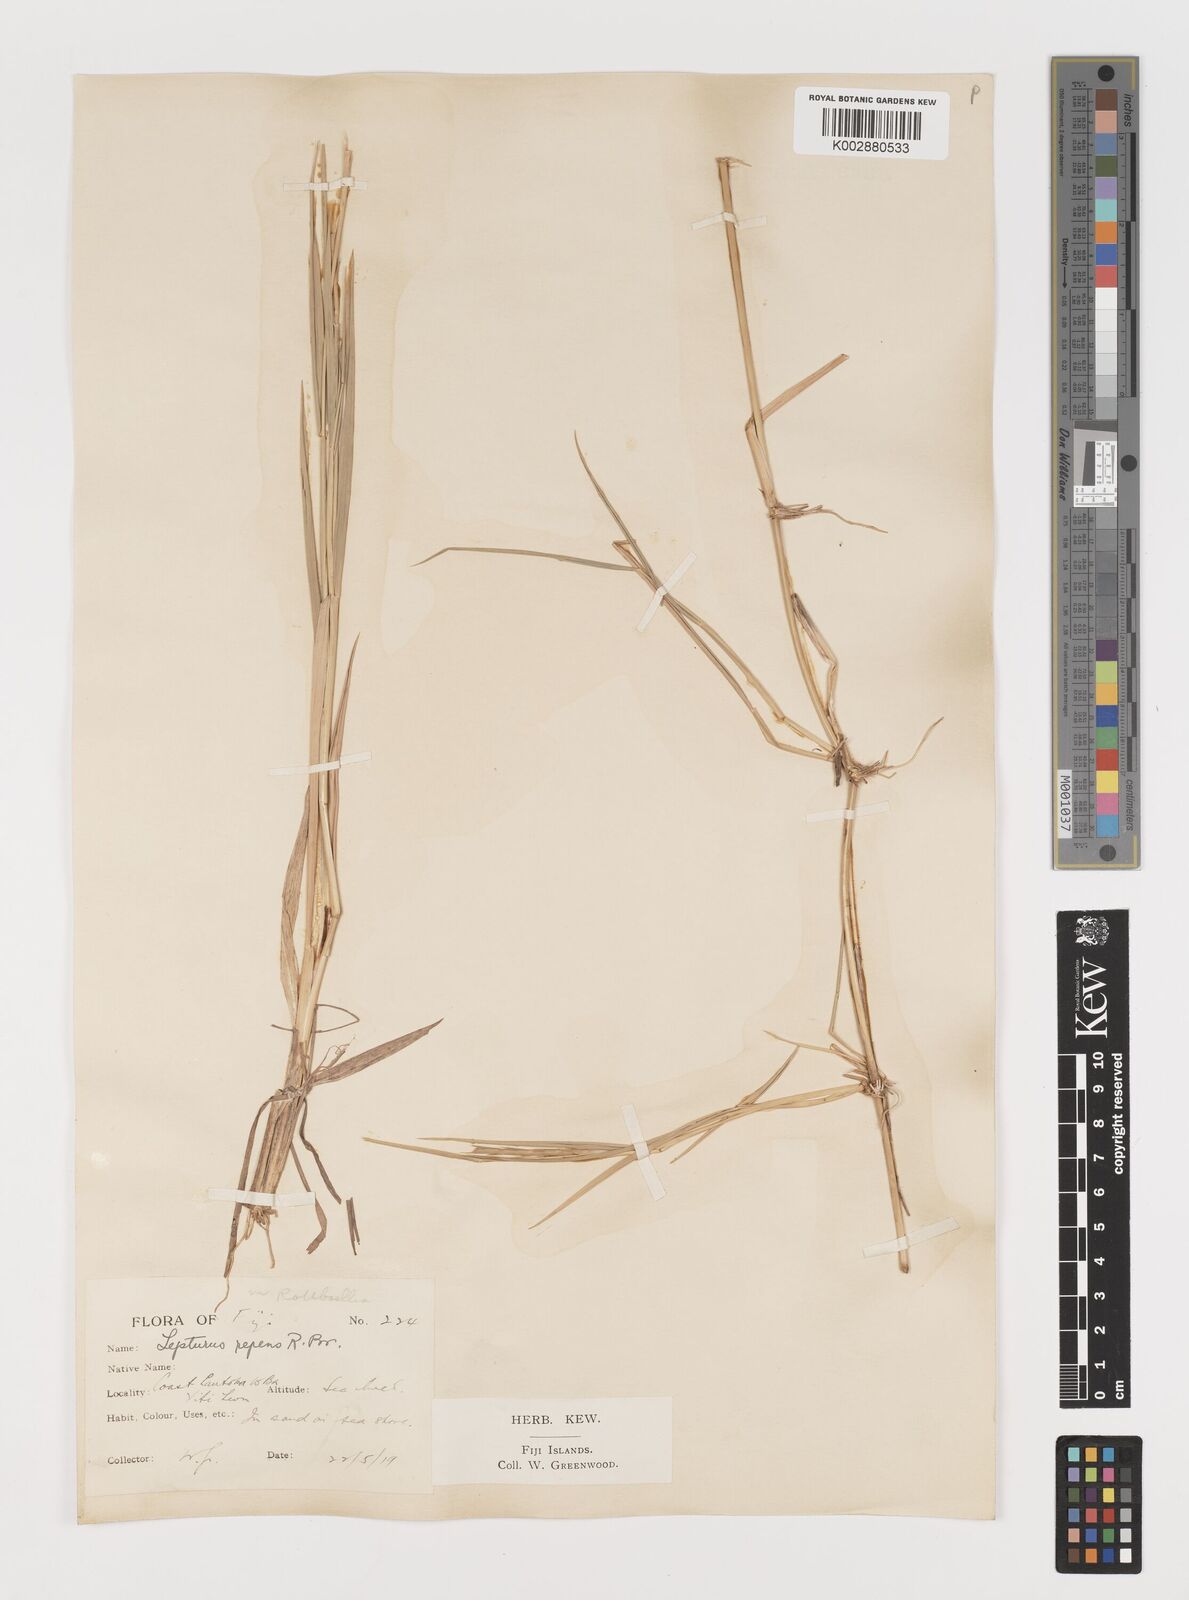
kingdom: Plantae
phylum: Tracheophyta
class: Liliopsida
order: Poales
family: Poaceae
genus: Lepturus
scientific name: Lepturus repens
